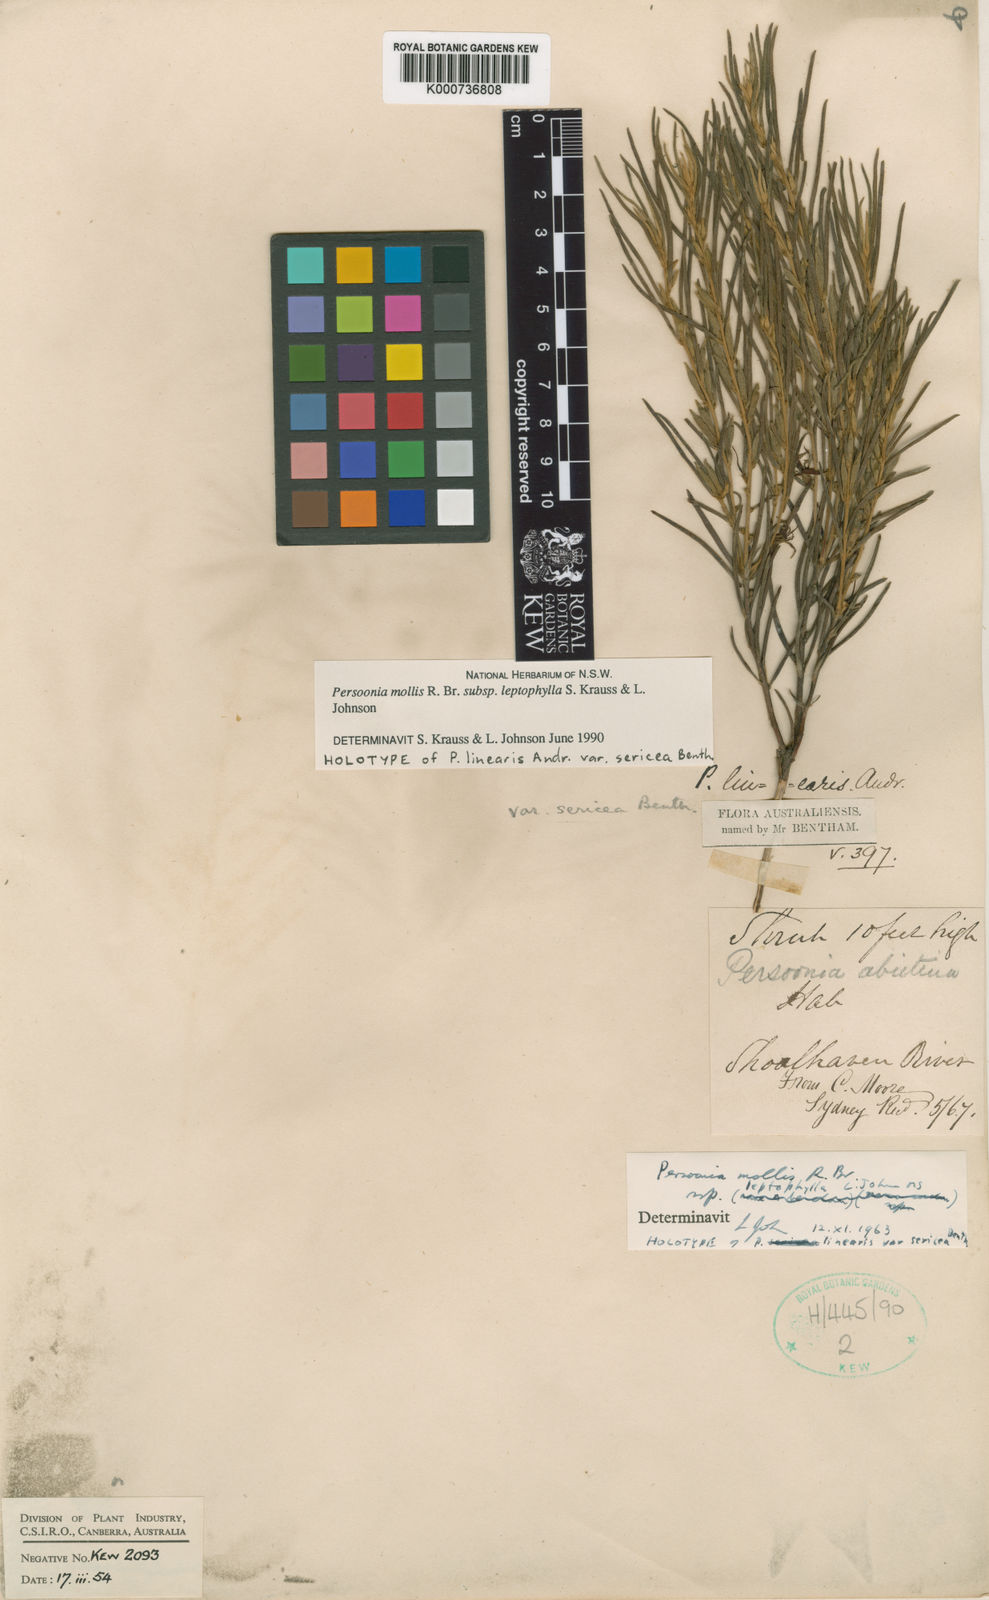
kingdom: Plantae
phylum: Tracheophyta
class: Magnoliopsida
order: Proteales
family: Proteaceae
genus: Persoonia
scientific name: Persoonia mollis
